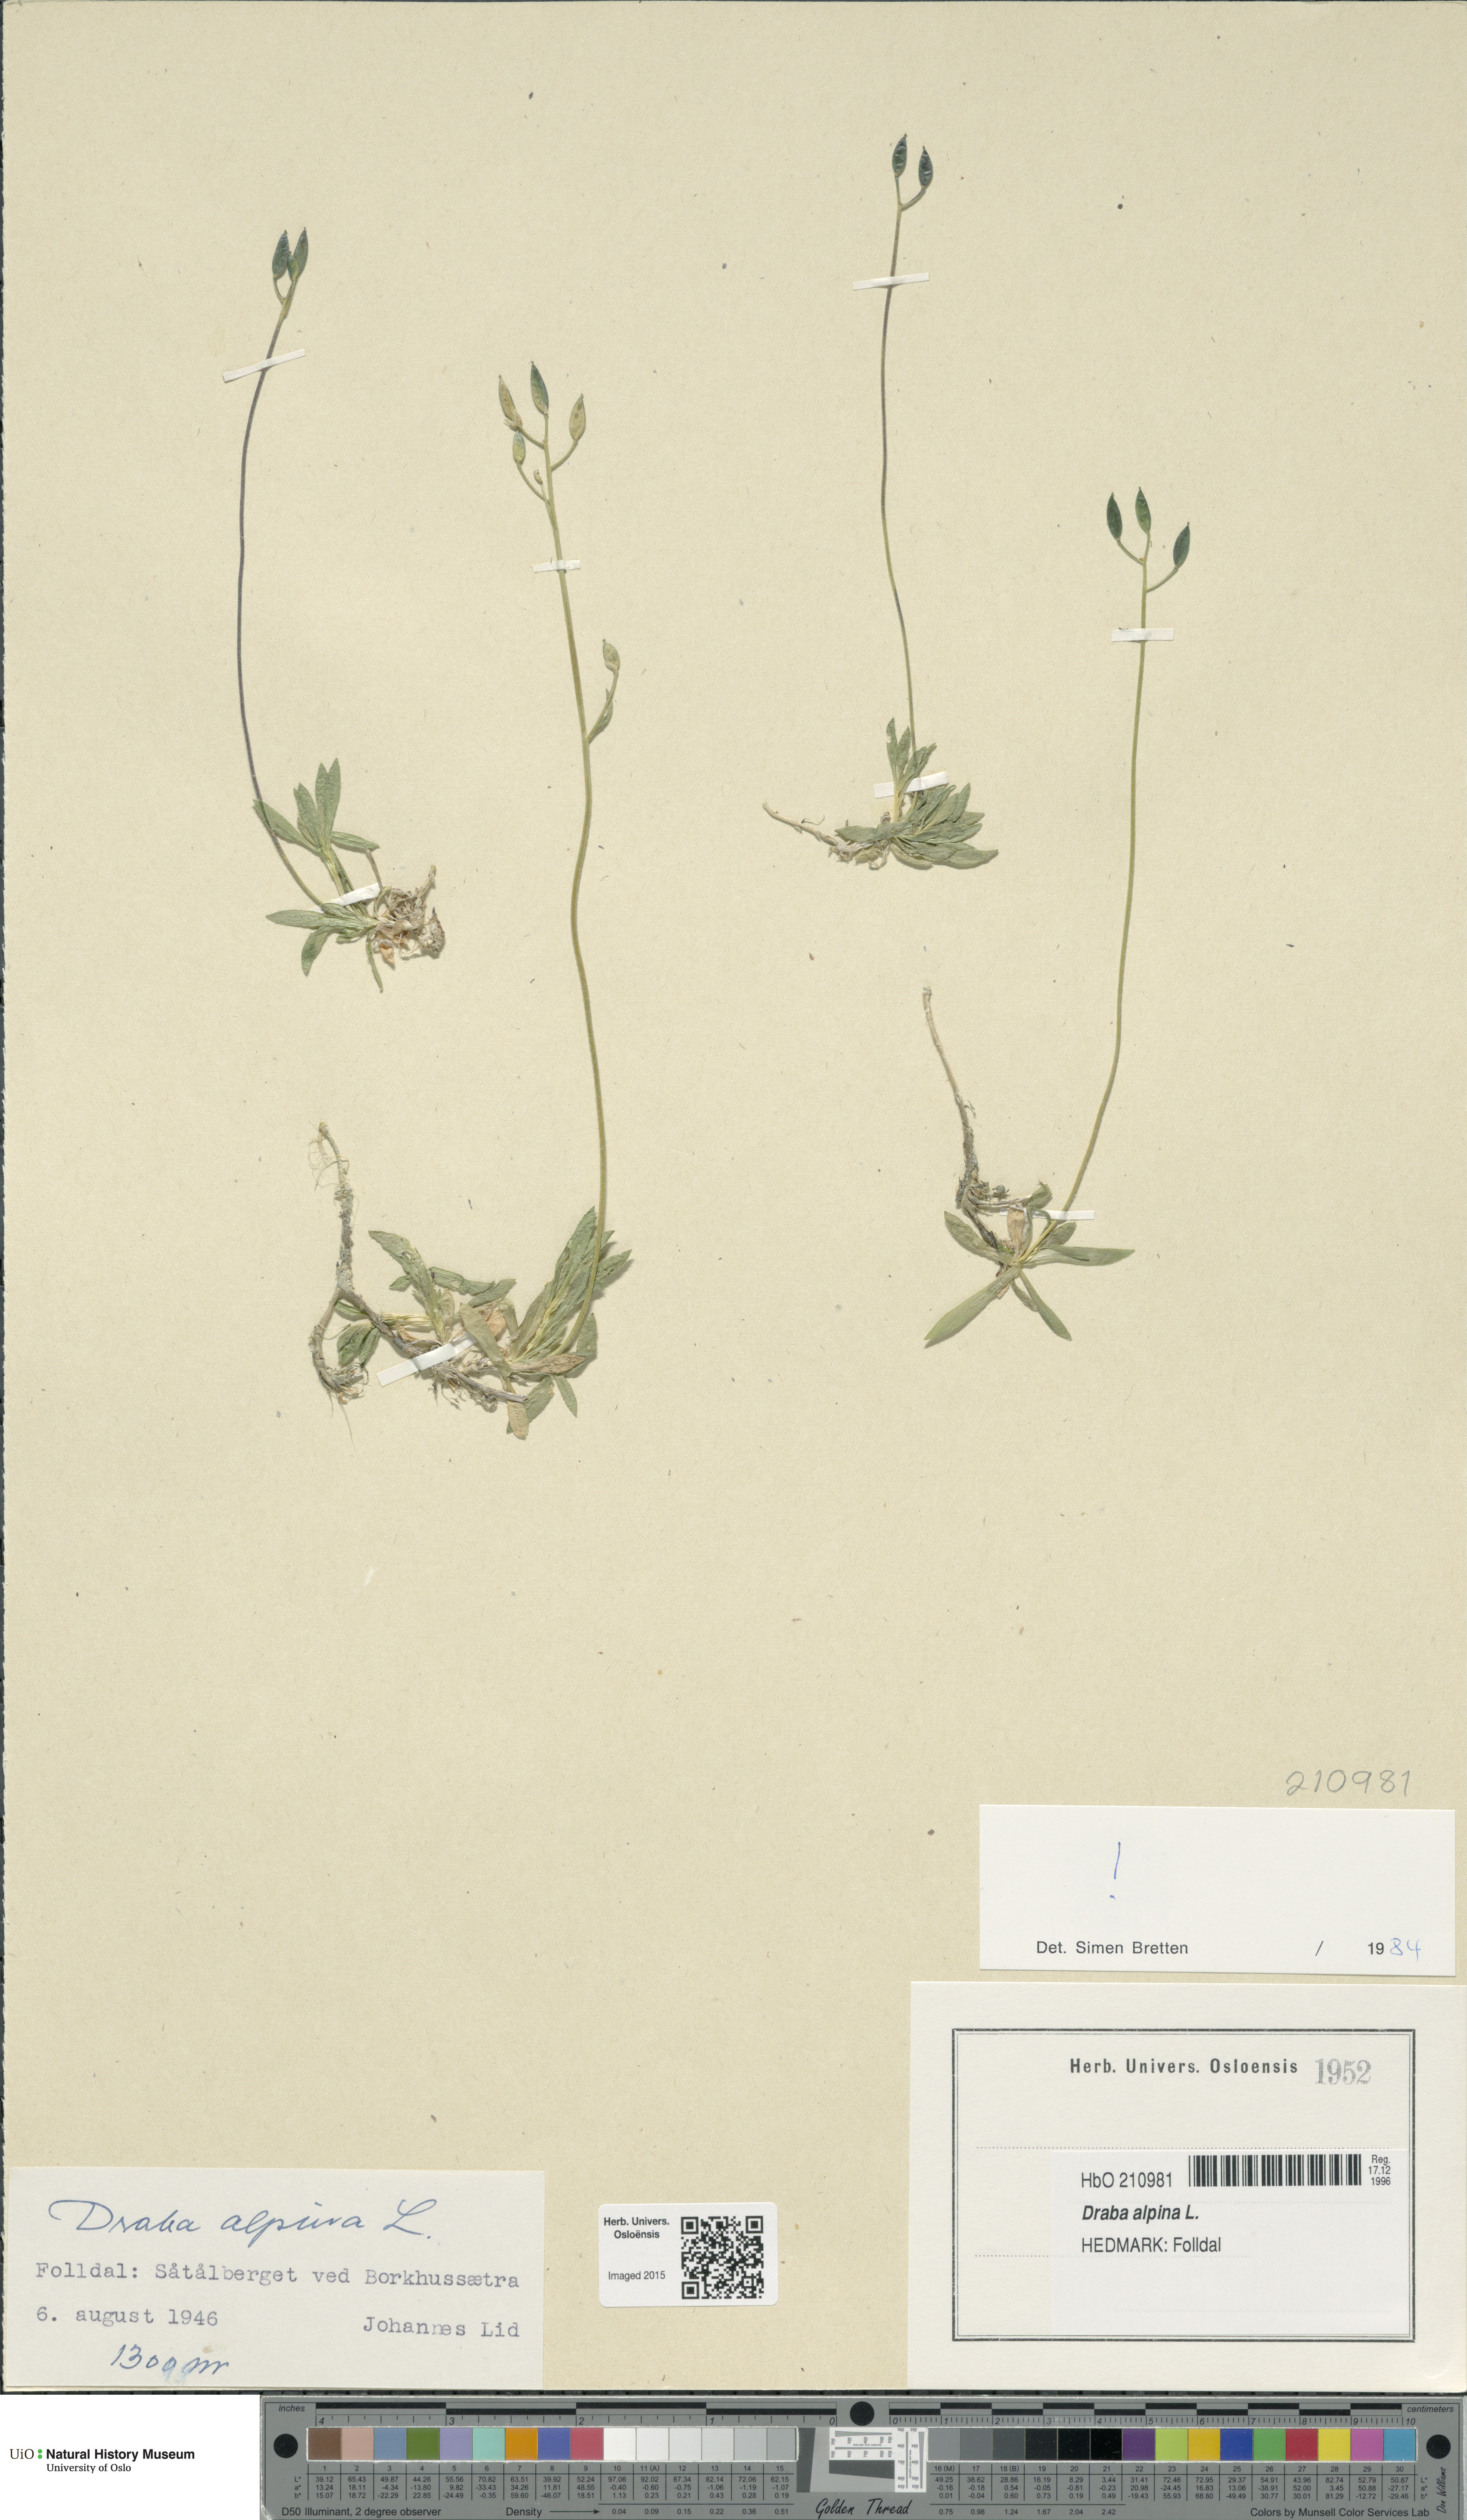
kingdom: Plantae
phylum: Tracheophyta
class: Magnoliopsida
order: Brassicales
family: Brassicaceae
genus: Draba
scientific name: Draba alpina
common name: Alpine draba
